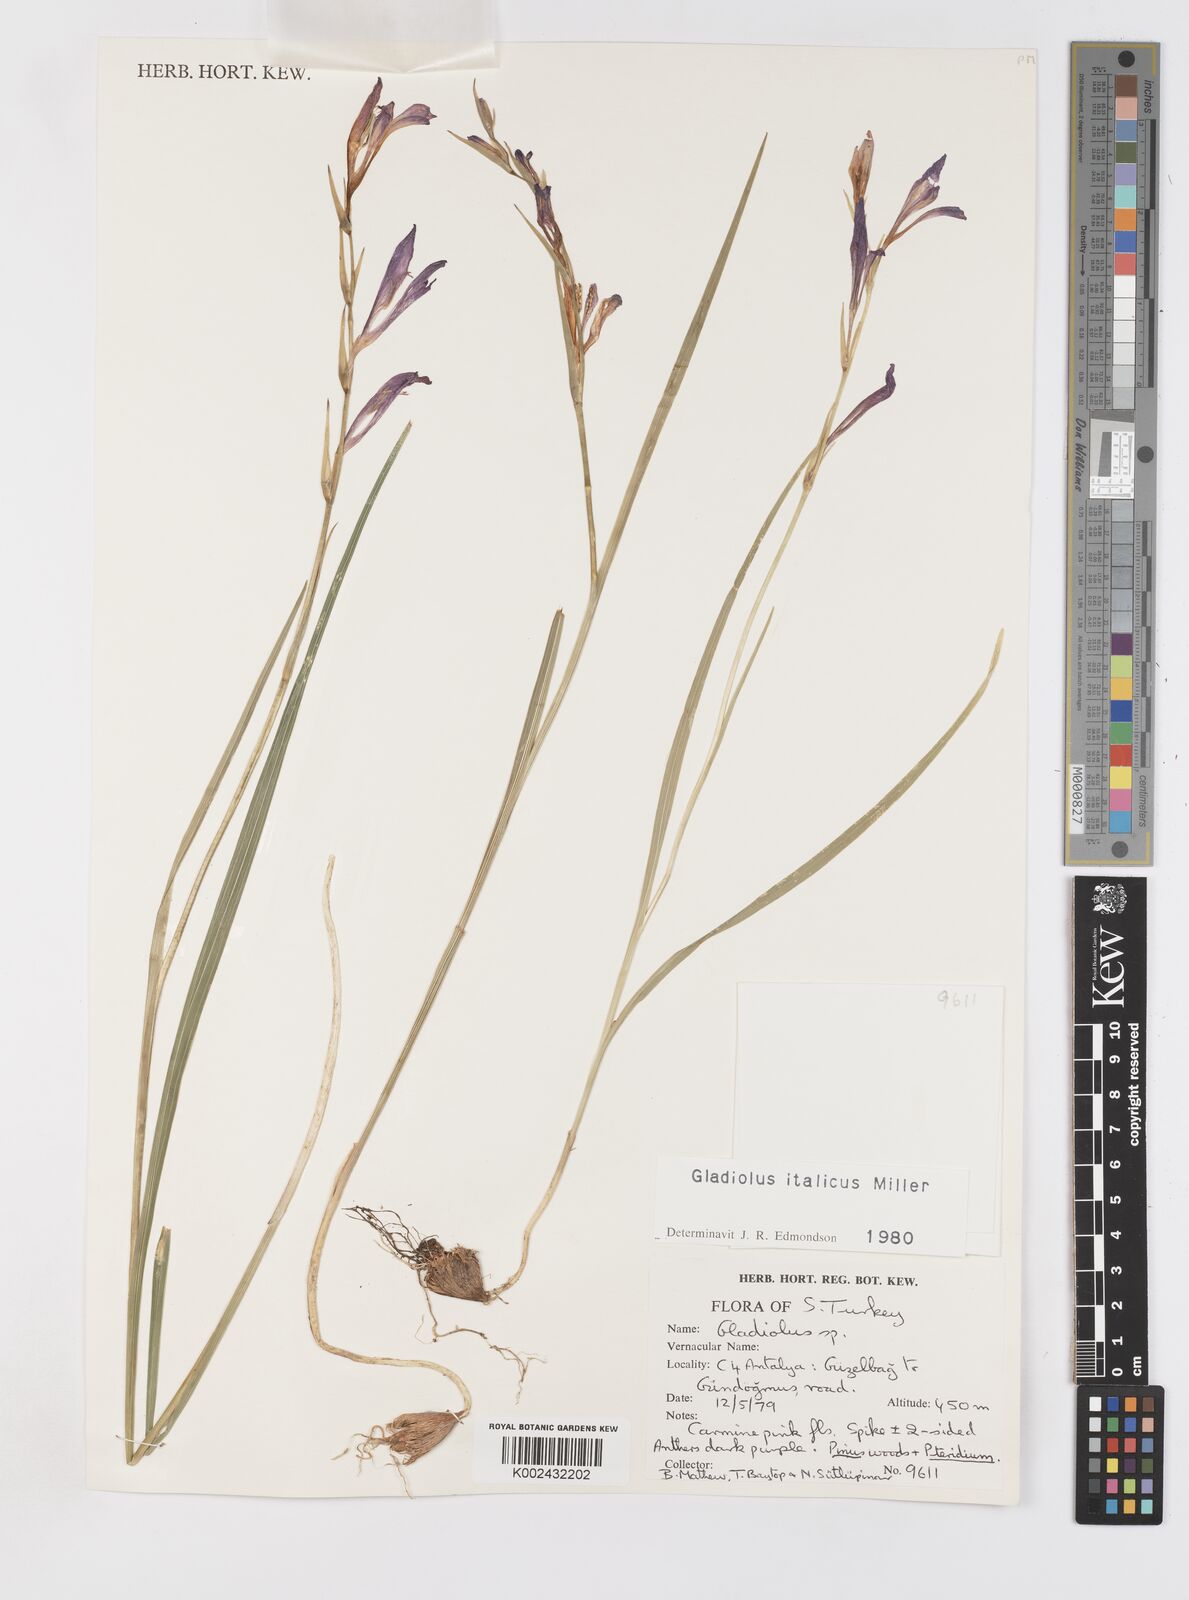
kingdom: Plantae
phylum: Tracheophyta
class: Liliopsida
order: Asparagales
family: Iridaceae
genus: Gladiolus
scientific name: Gladiolus italicus
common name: Field gladiolus
